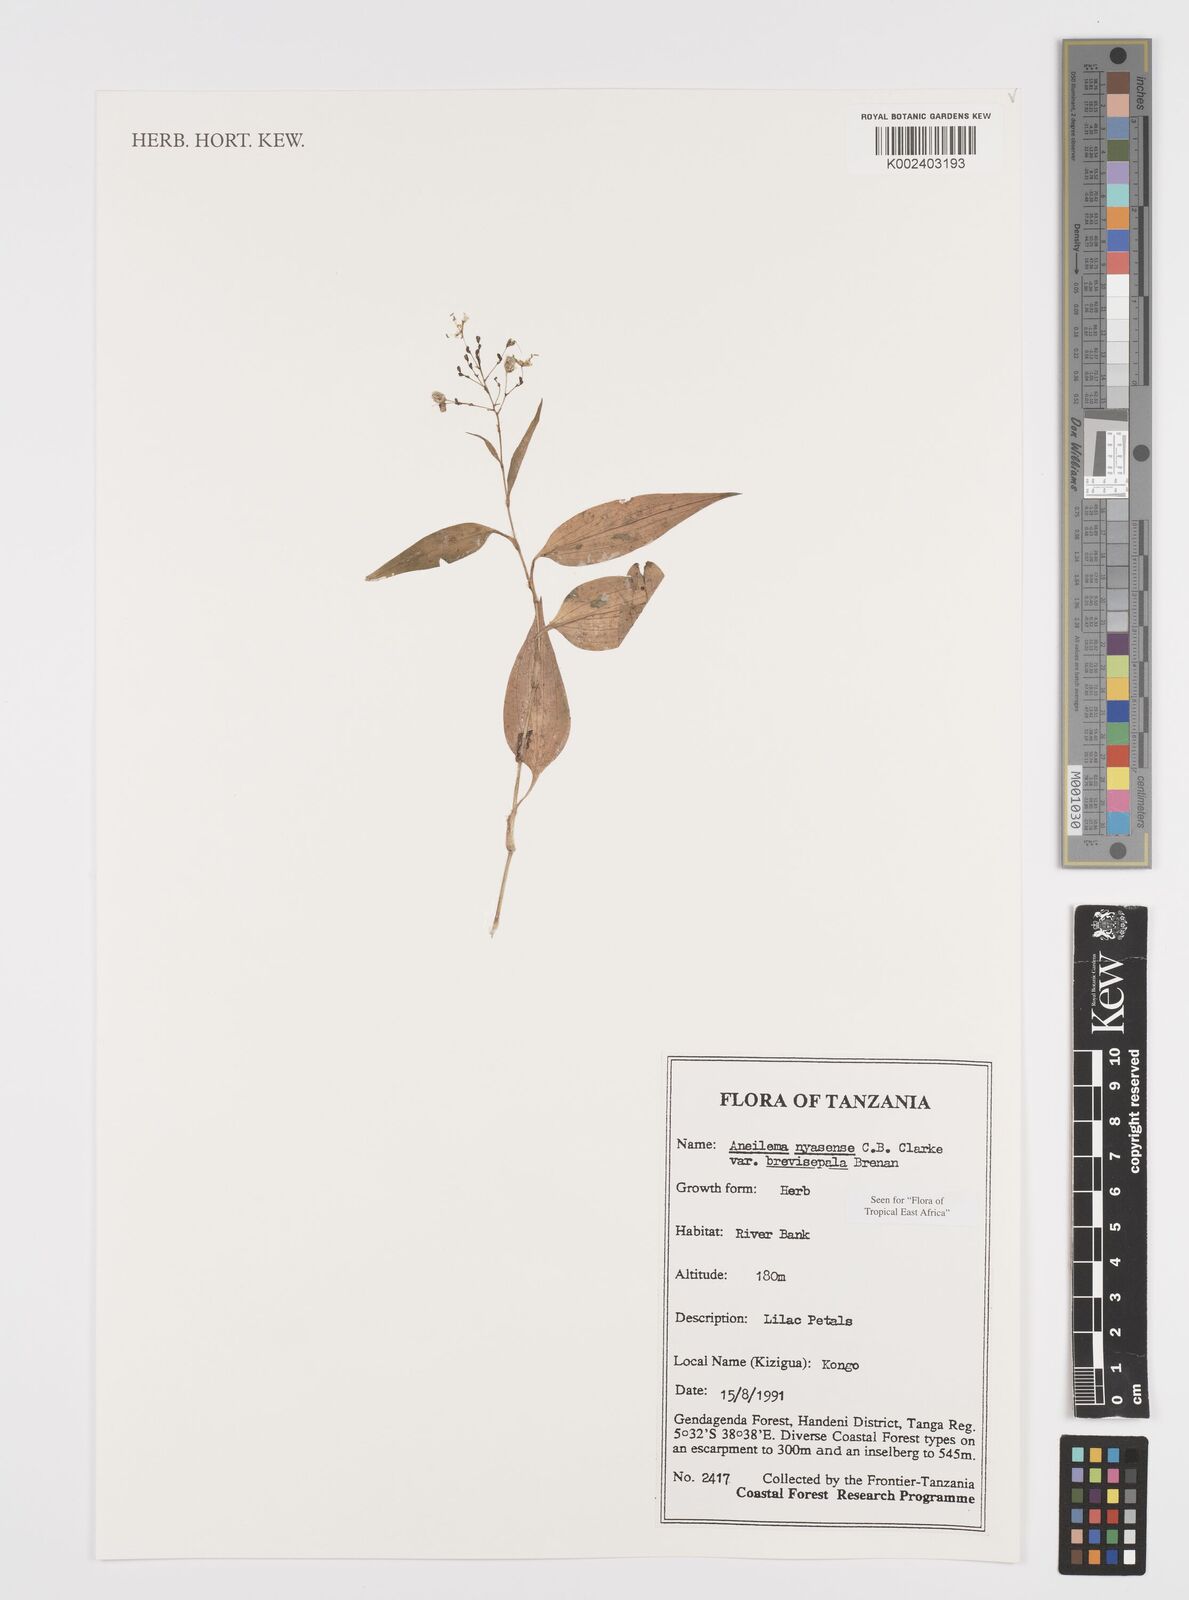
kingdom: Plantae
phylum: Tracheophyta
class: Liliopsida
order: Commelinales
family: Commelinaceae
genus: Aneilema
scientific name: Aneilema nyasense
